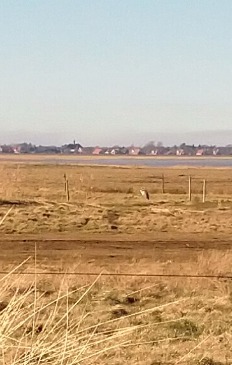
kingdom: Animalia
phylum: Chordata
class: Aves
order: Pelecaniformes
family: Ardeidae
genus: Ardea
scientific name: Ardea cinerea
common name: Fiskehejre
